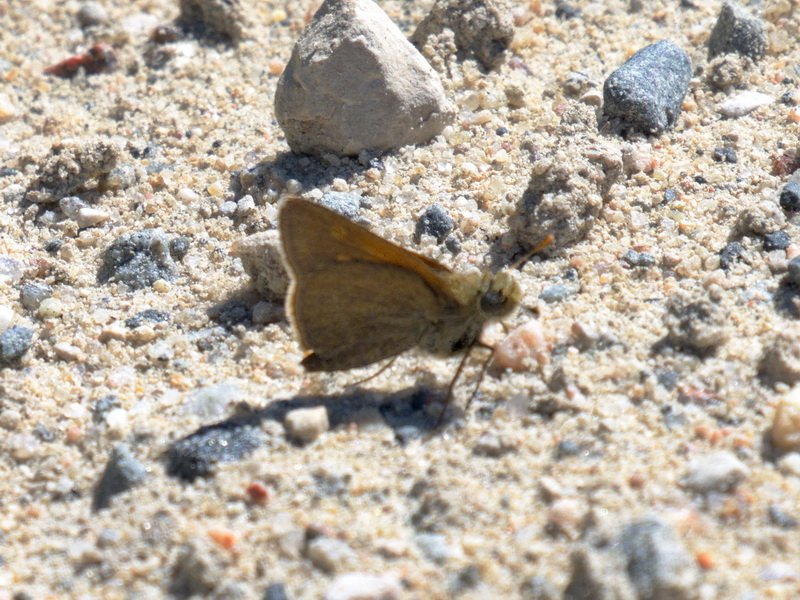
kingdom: Animalia
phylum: Arthropoda
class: Insecta
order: Lepidoptera
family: Hesperiidae
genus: Polites
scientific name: Polites themistocles
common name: Tawny-edged Skipper
